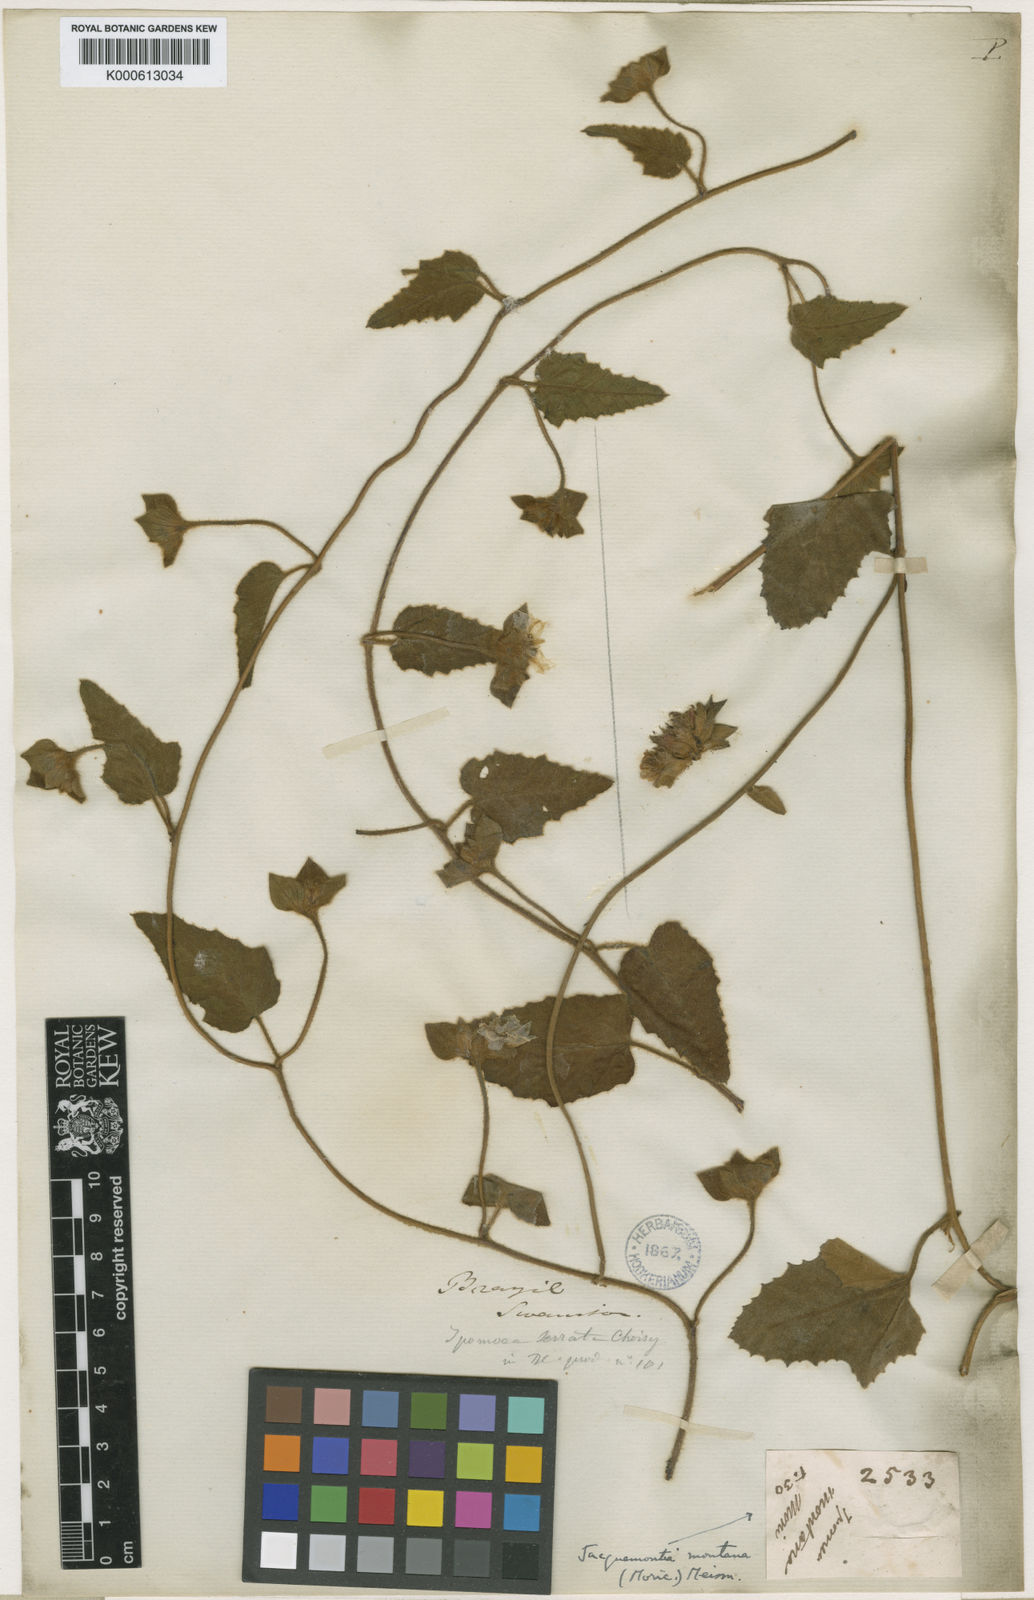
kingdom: Plantae
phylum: Tracheophyta
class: Magnoliopsida
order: Solanales
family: Convolvulaceae
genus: Daustinia
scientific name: Daustinia montana
